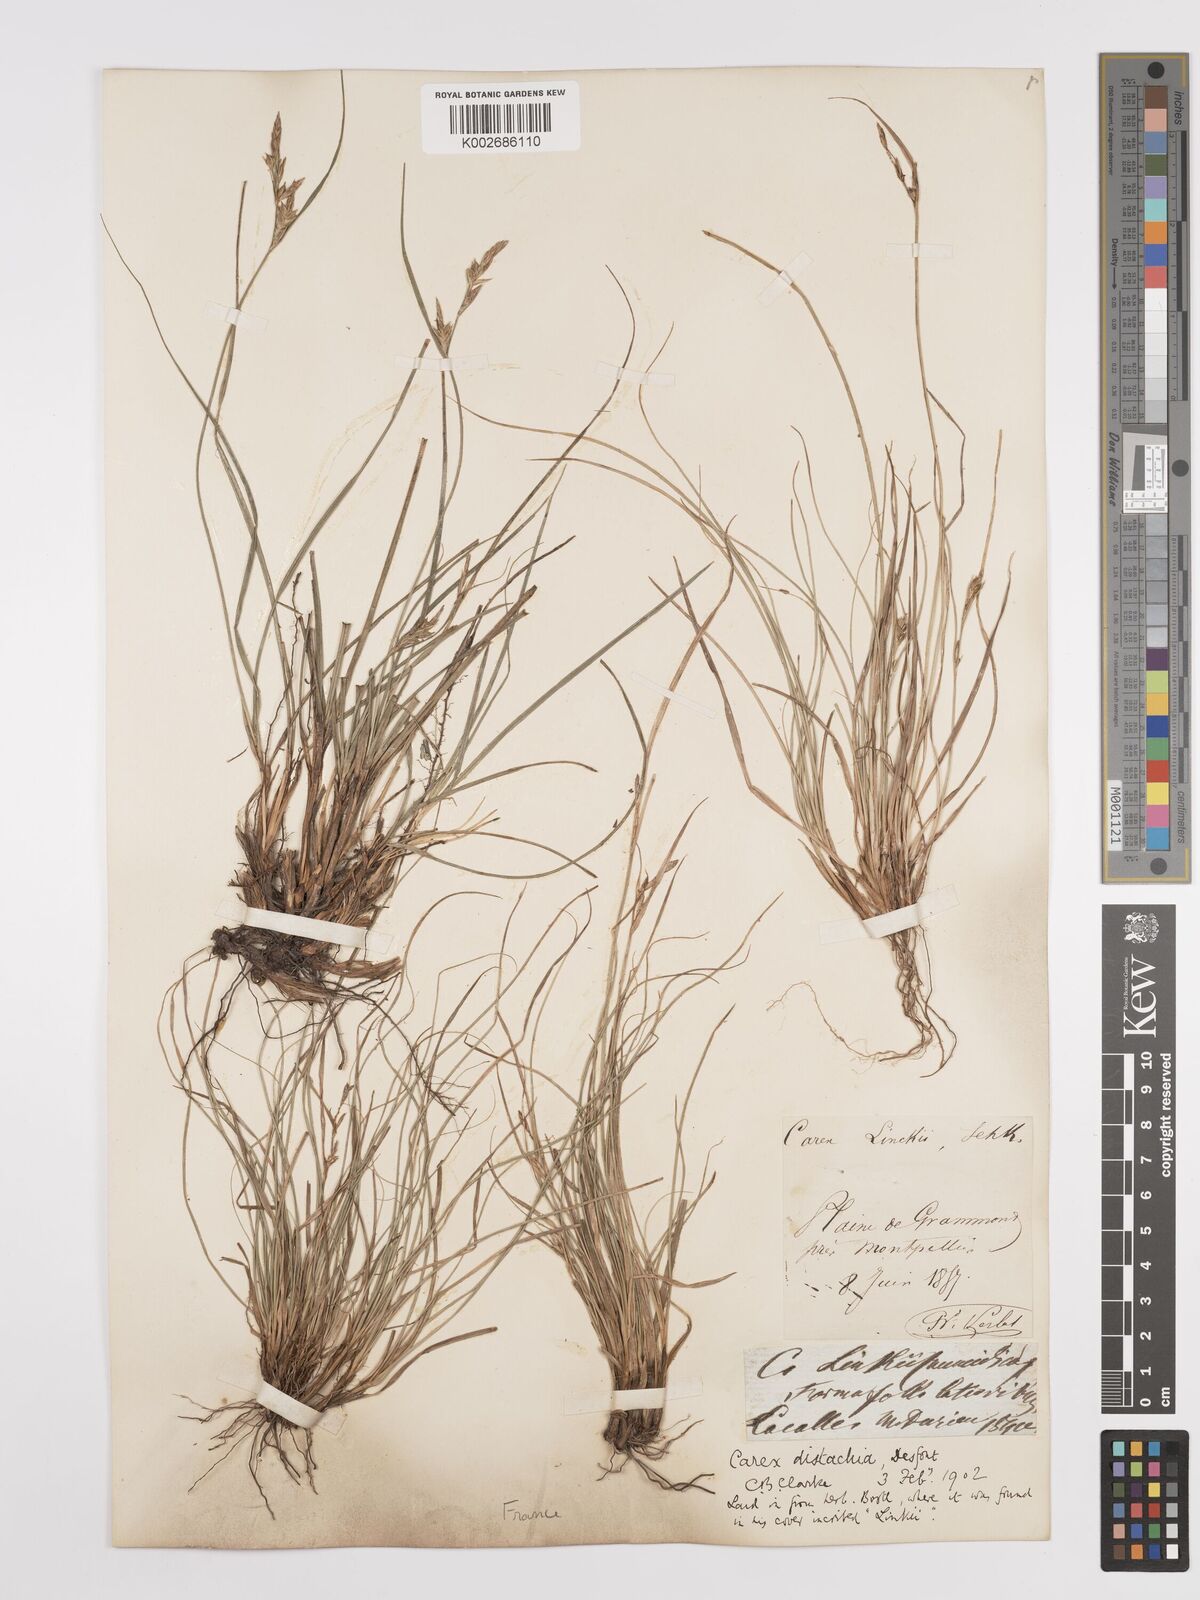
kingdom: Plantae
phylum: Tracheophyta
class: Liliopsida
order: Poales
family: Cyperaceae
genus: Carex
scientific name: Carex distachya
